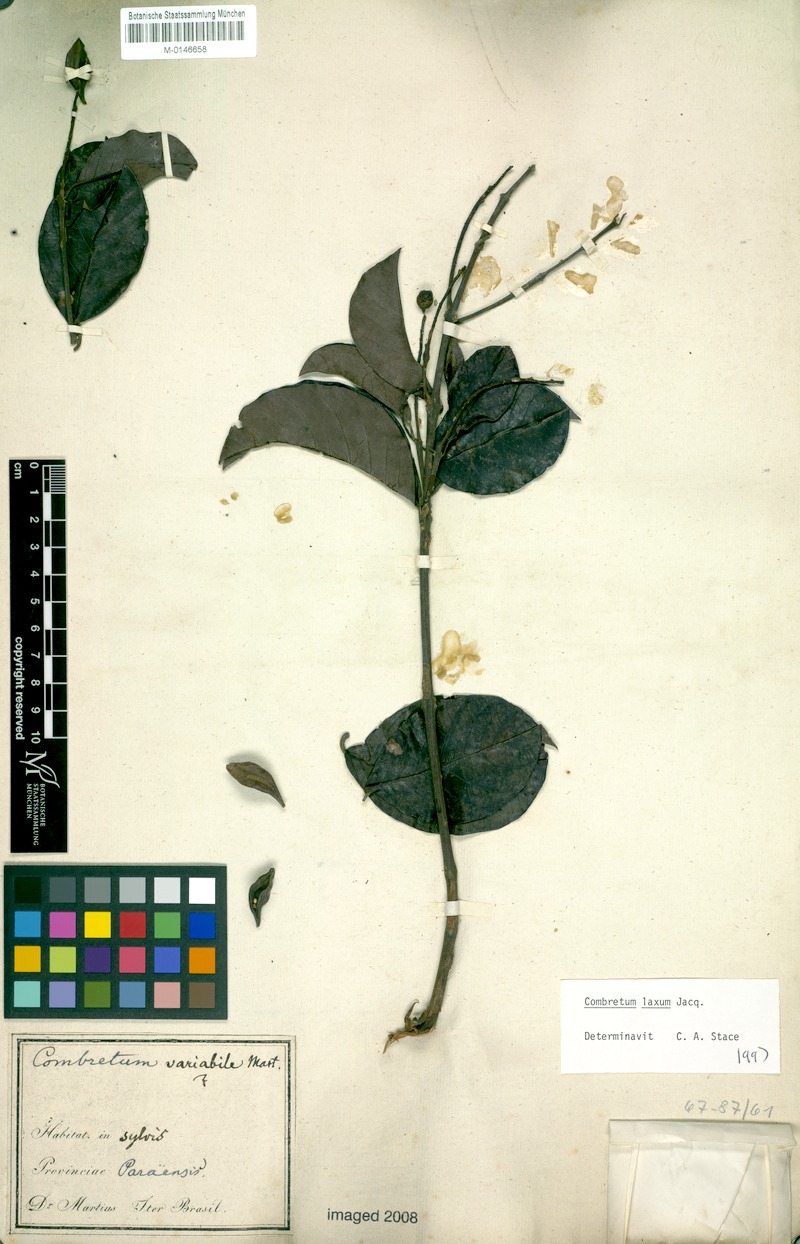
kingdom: Plantae
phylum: Tracheophyta
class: Magnoliopsida
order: Myrtales
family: Combretaceae
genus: Combretum
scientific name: Combretum laxum
